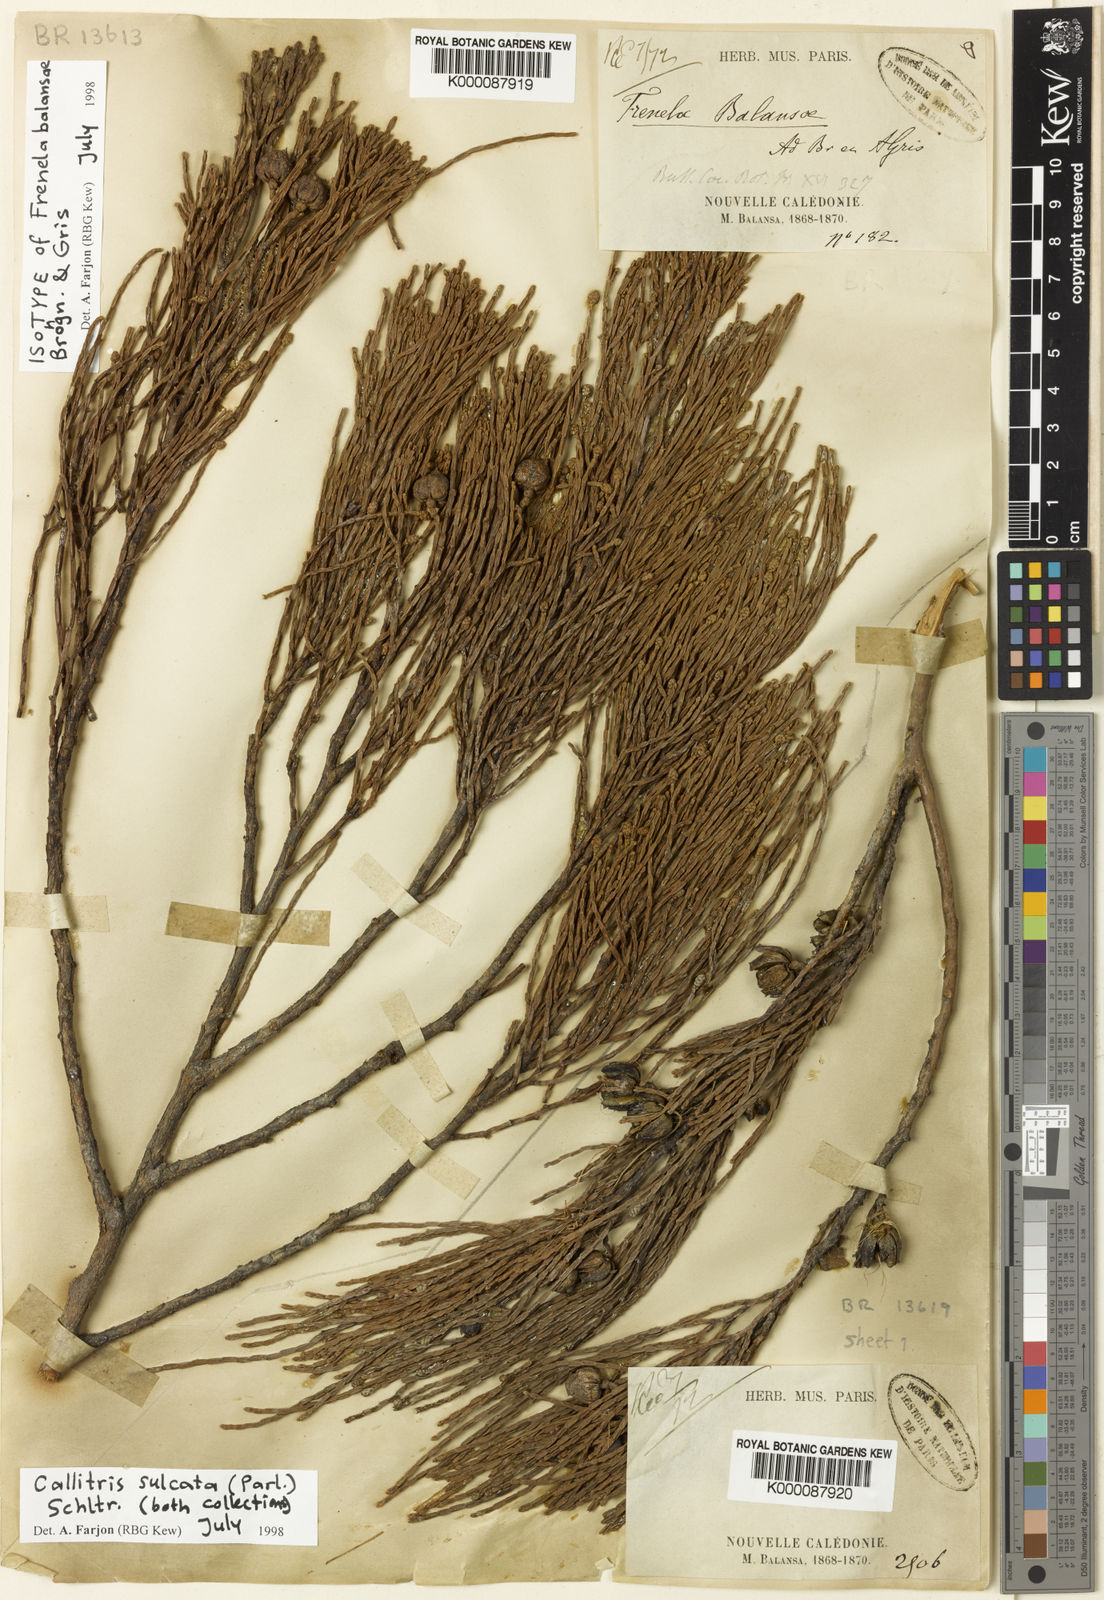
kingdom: Plantae
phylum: Tracheophyta
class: Pinopsida
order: Pinales
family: Cupressaceae
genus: Callitris
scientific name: Callitris sulcata
